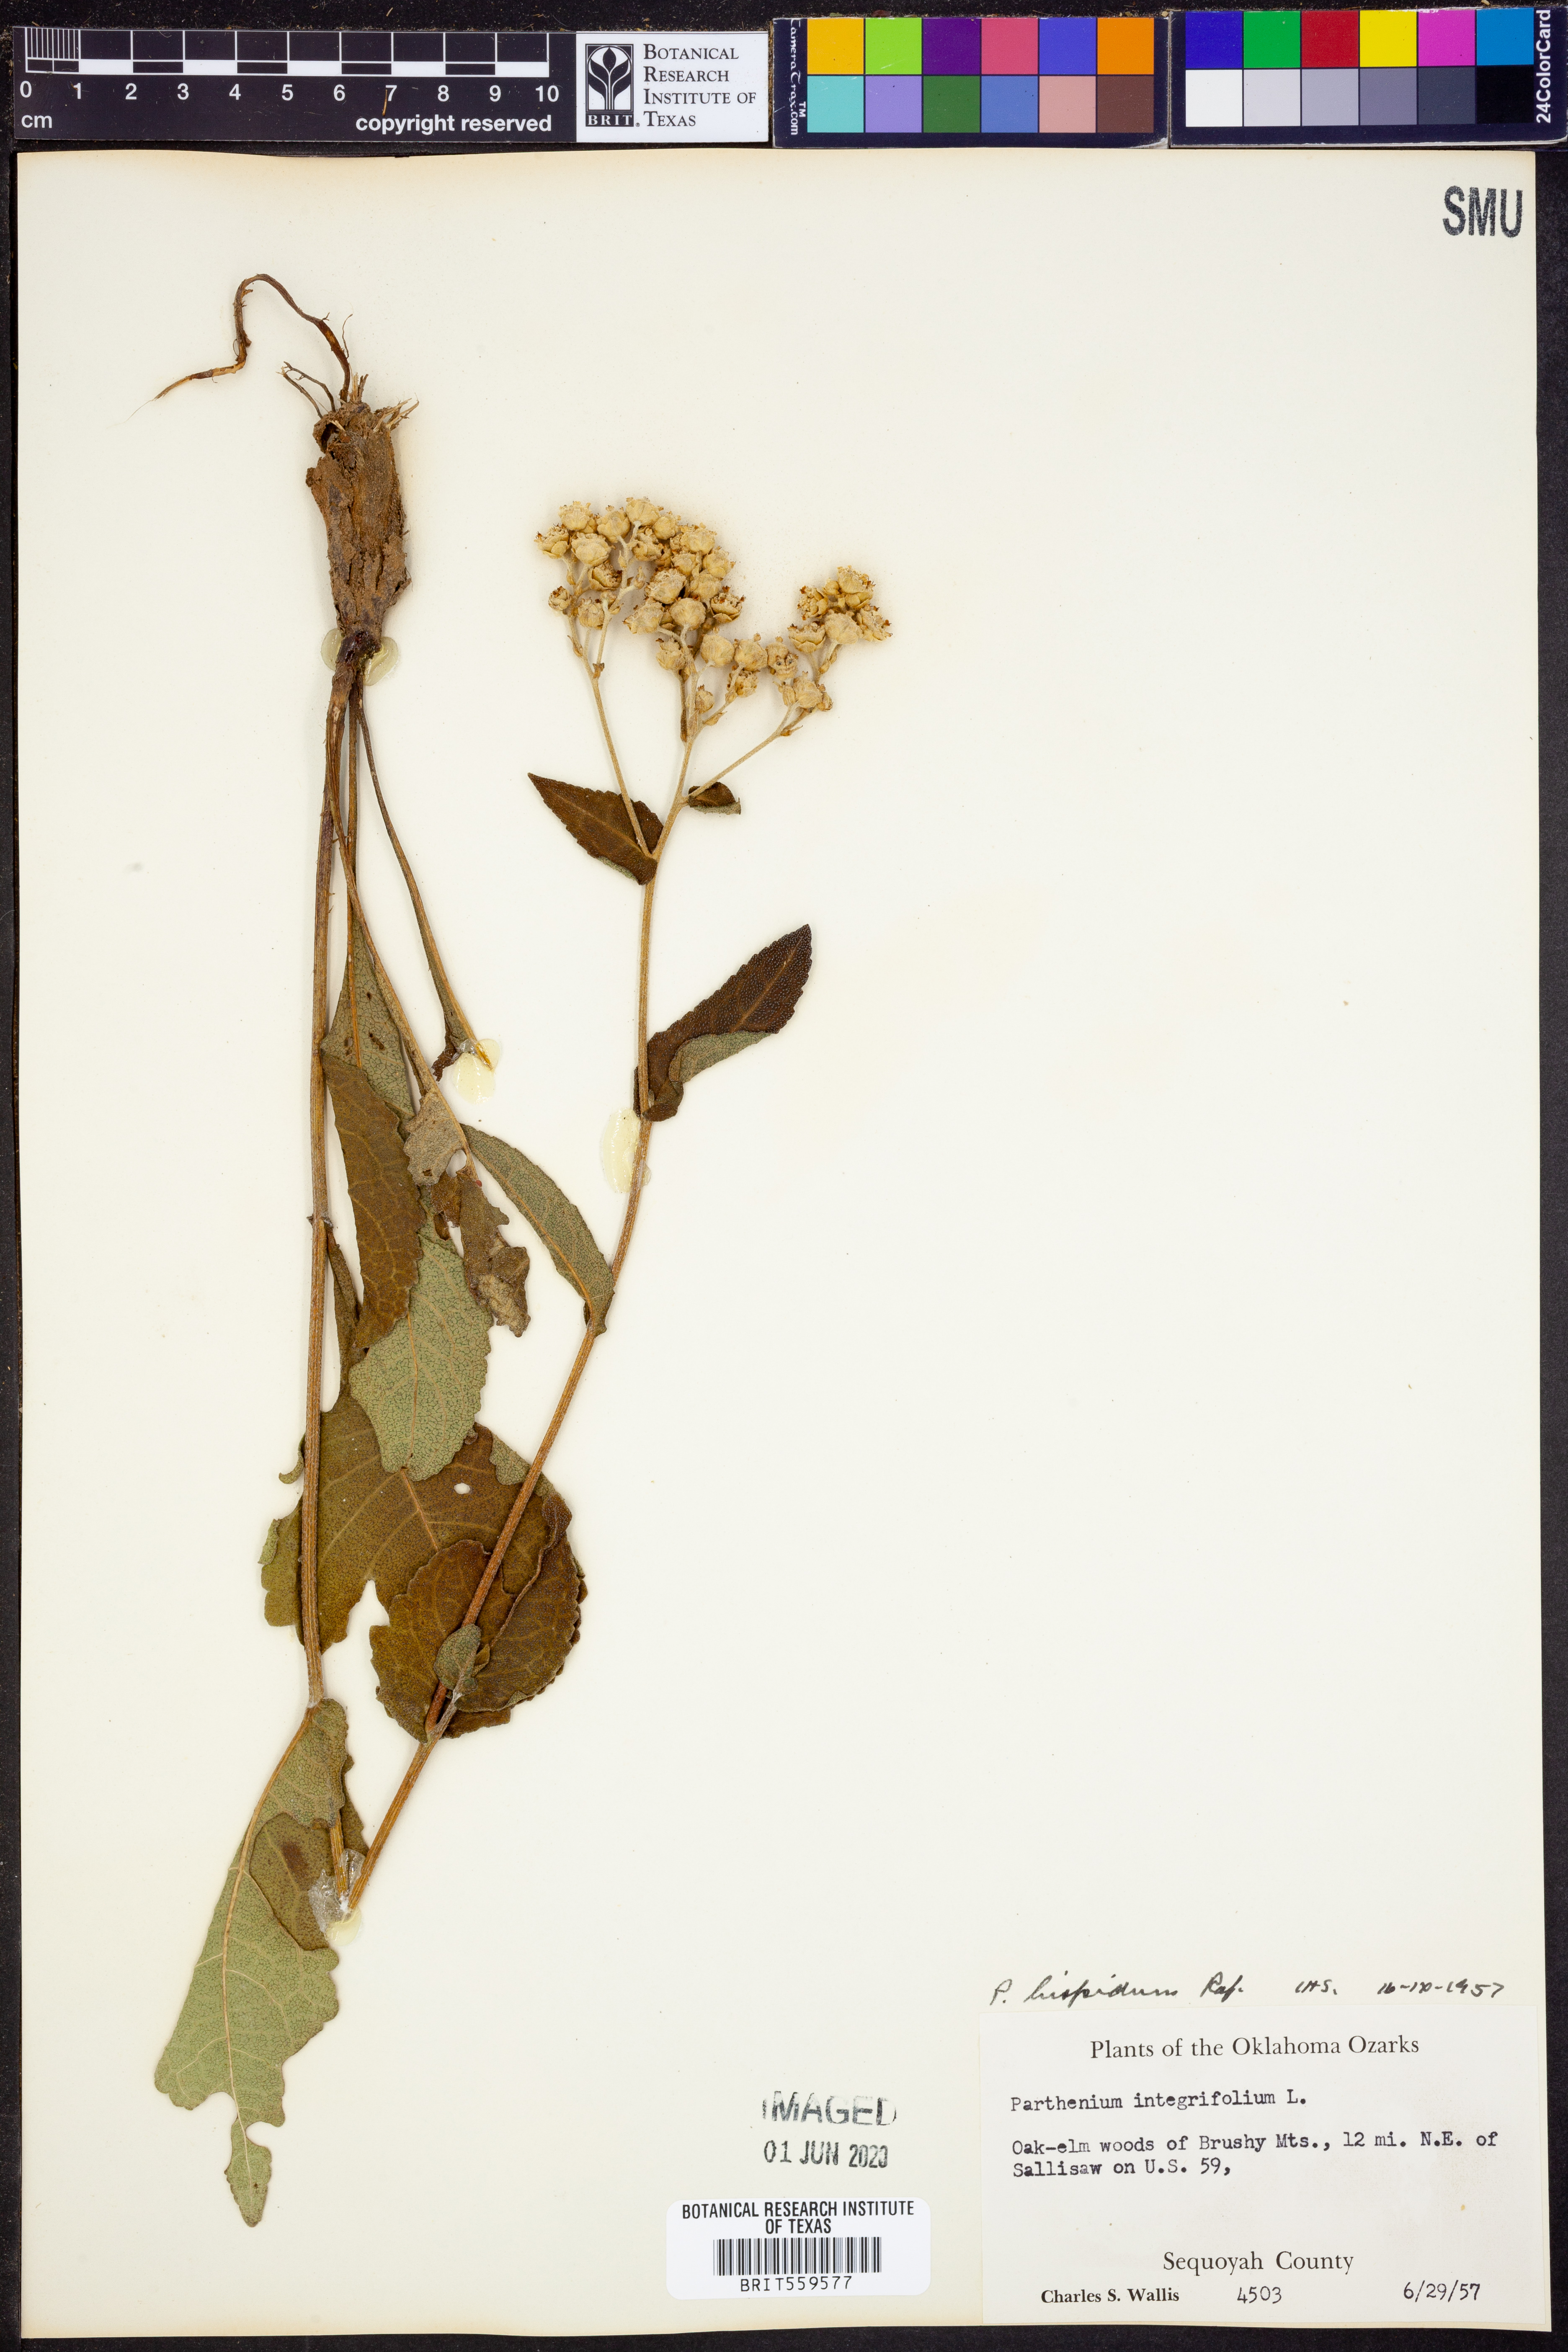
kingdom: Plantae
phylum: Tracheophyta
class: Magnoliopsida
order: Asterales
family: Asteraceae
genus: Parthenium
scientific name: Parthenium hispidum
